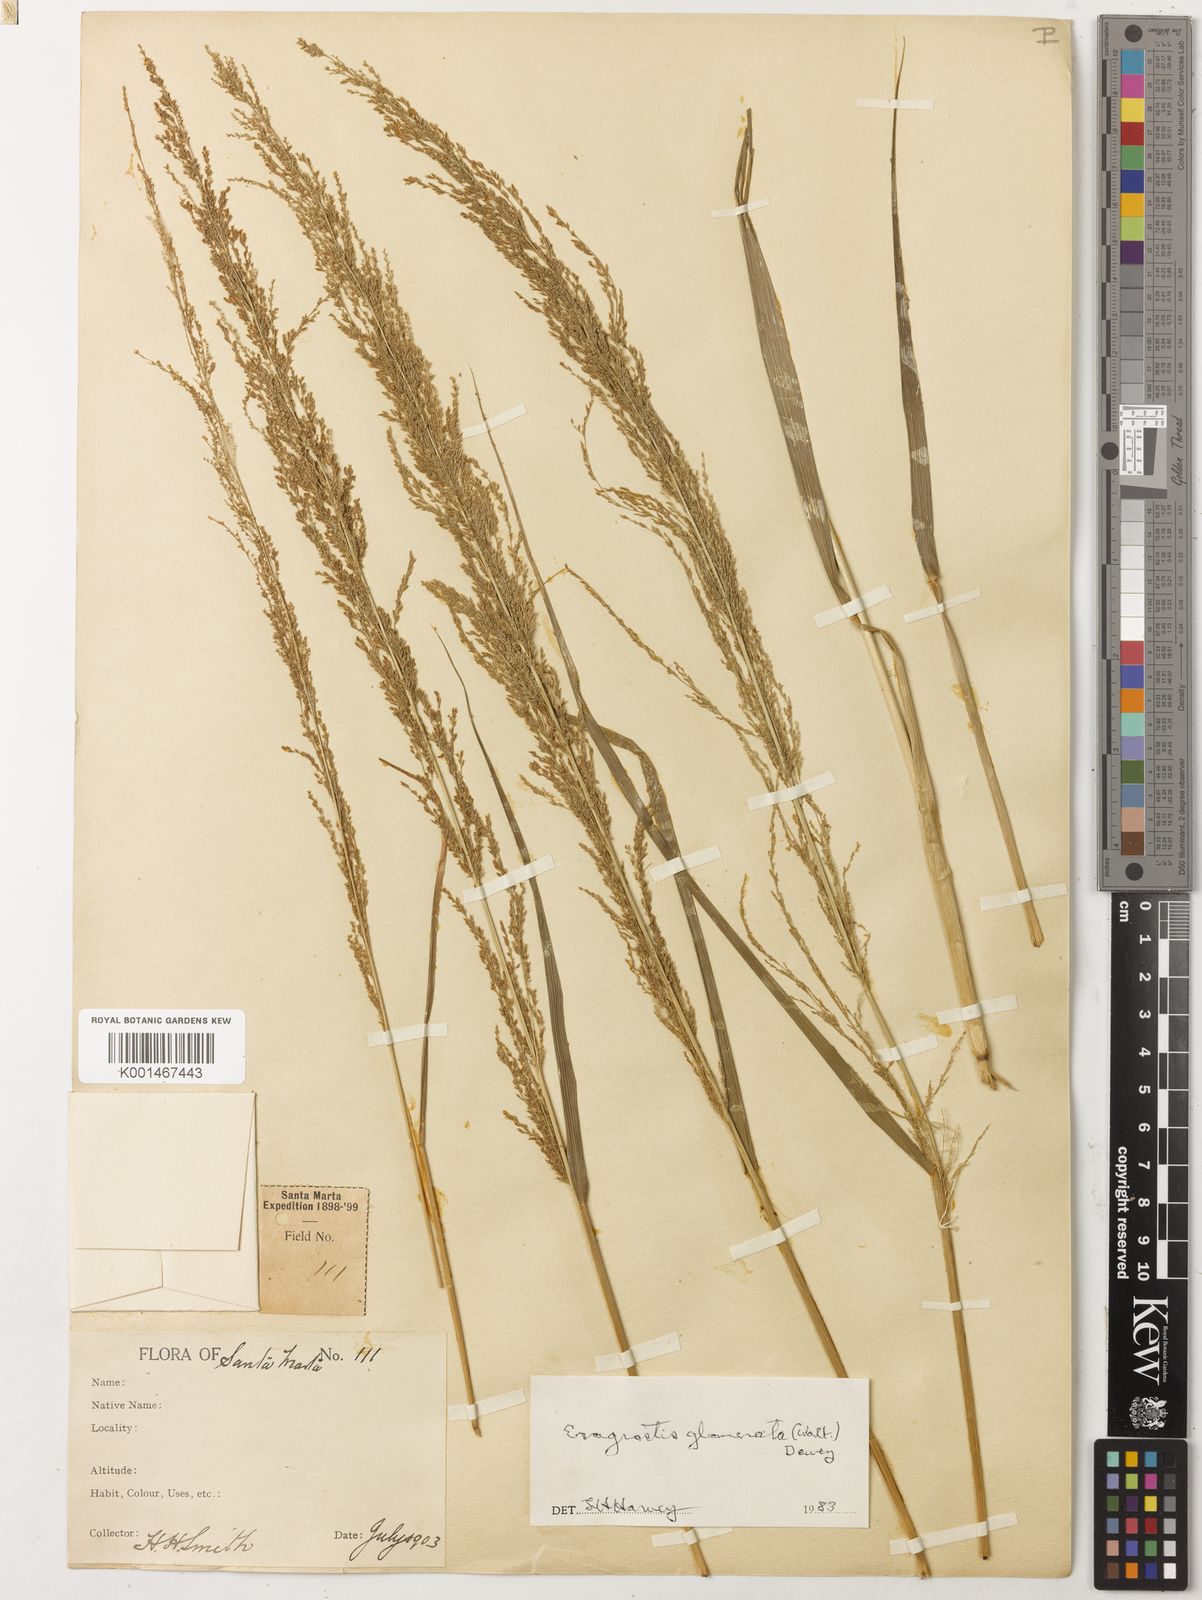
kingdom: Plantae
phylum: Tracheophyta
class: Liliopsida
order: Poales
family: Poaceae
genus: Eragrostis
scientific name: Eragrostis japonica
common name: Pond lovegrass
